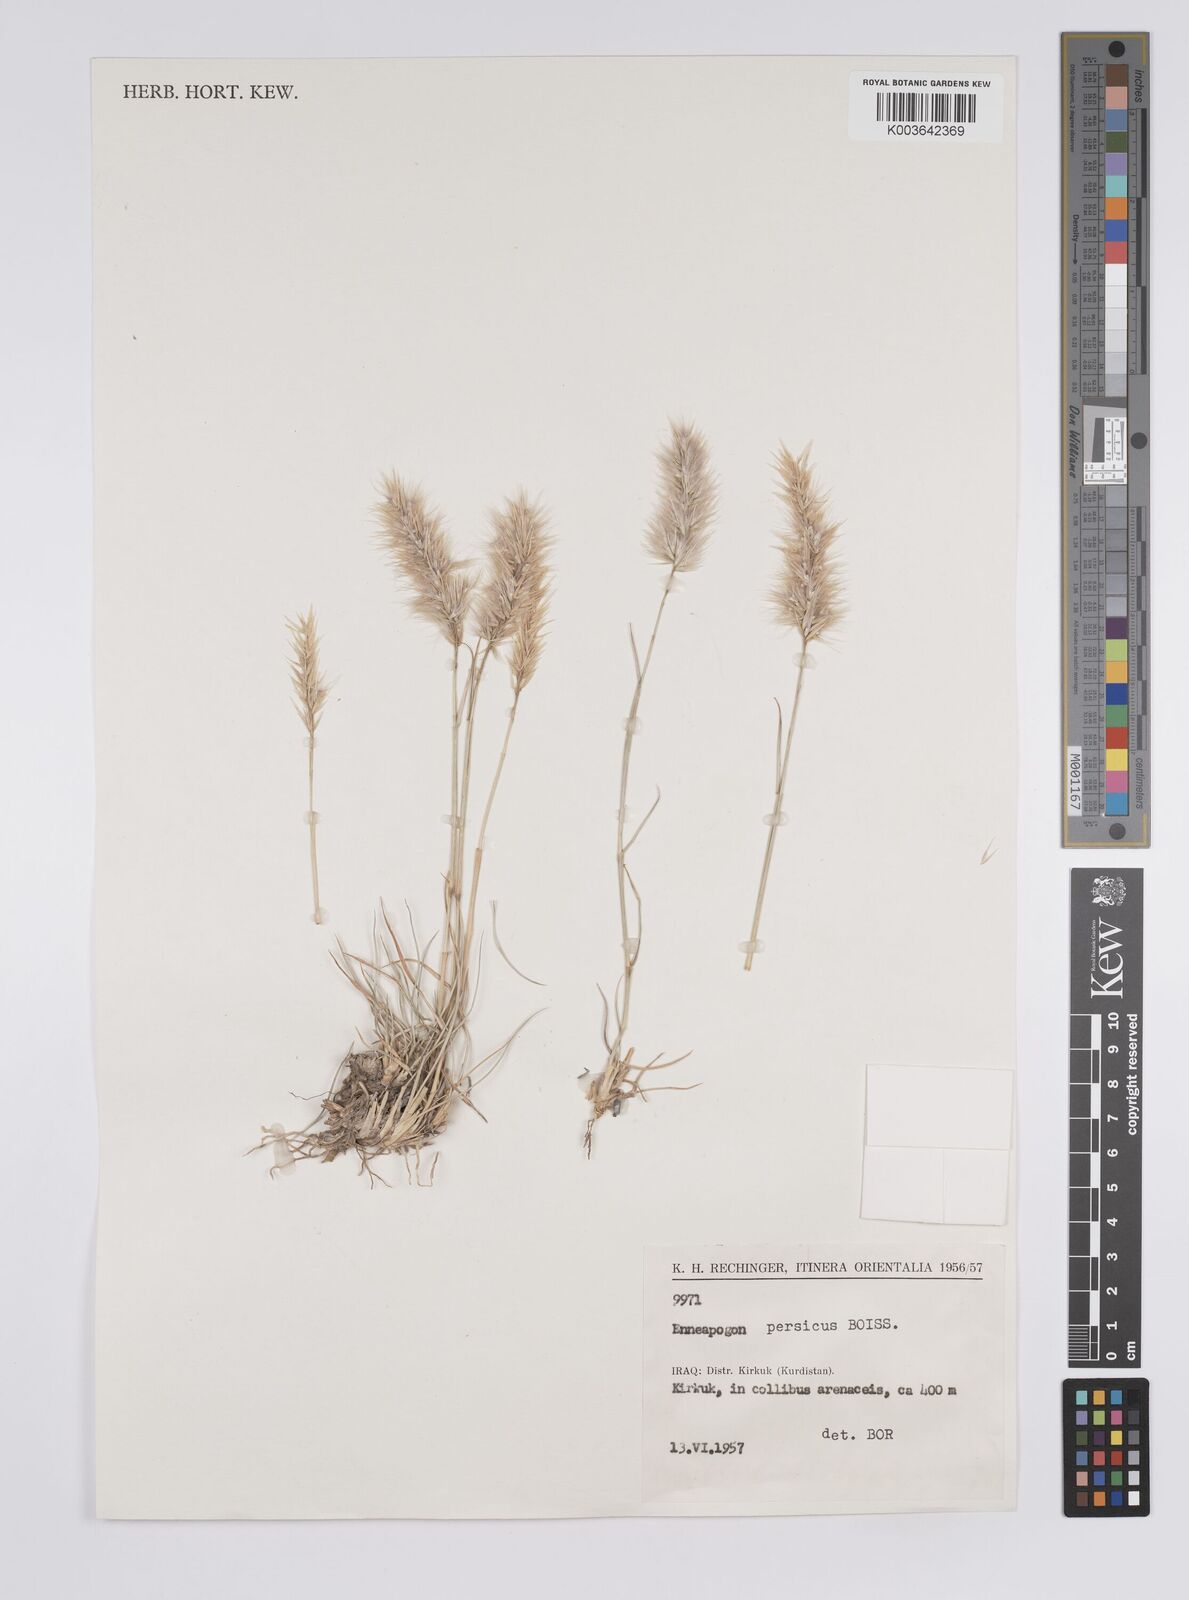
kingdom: Plantae
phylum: Tracheophyta
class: Liliopsida
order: Poales
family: Poaceae
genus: Enneapogon
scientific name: Enneapogon persicus
